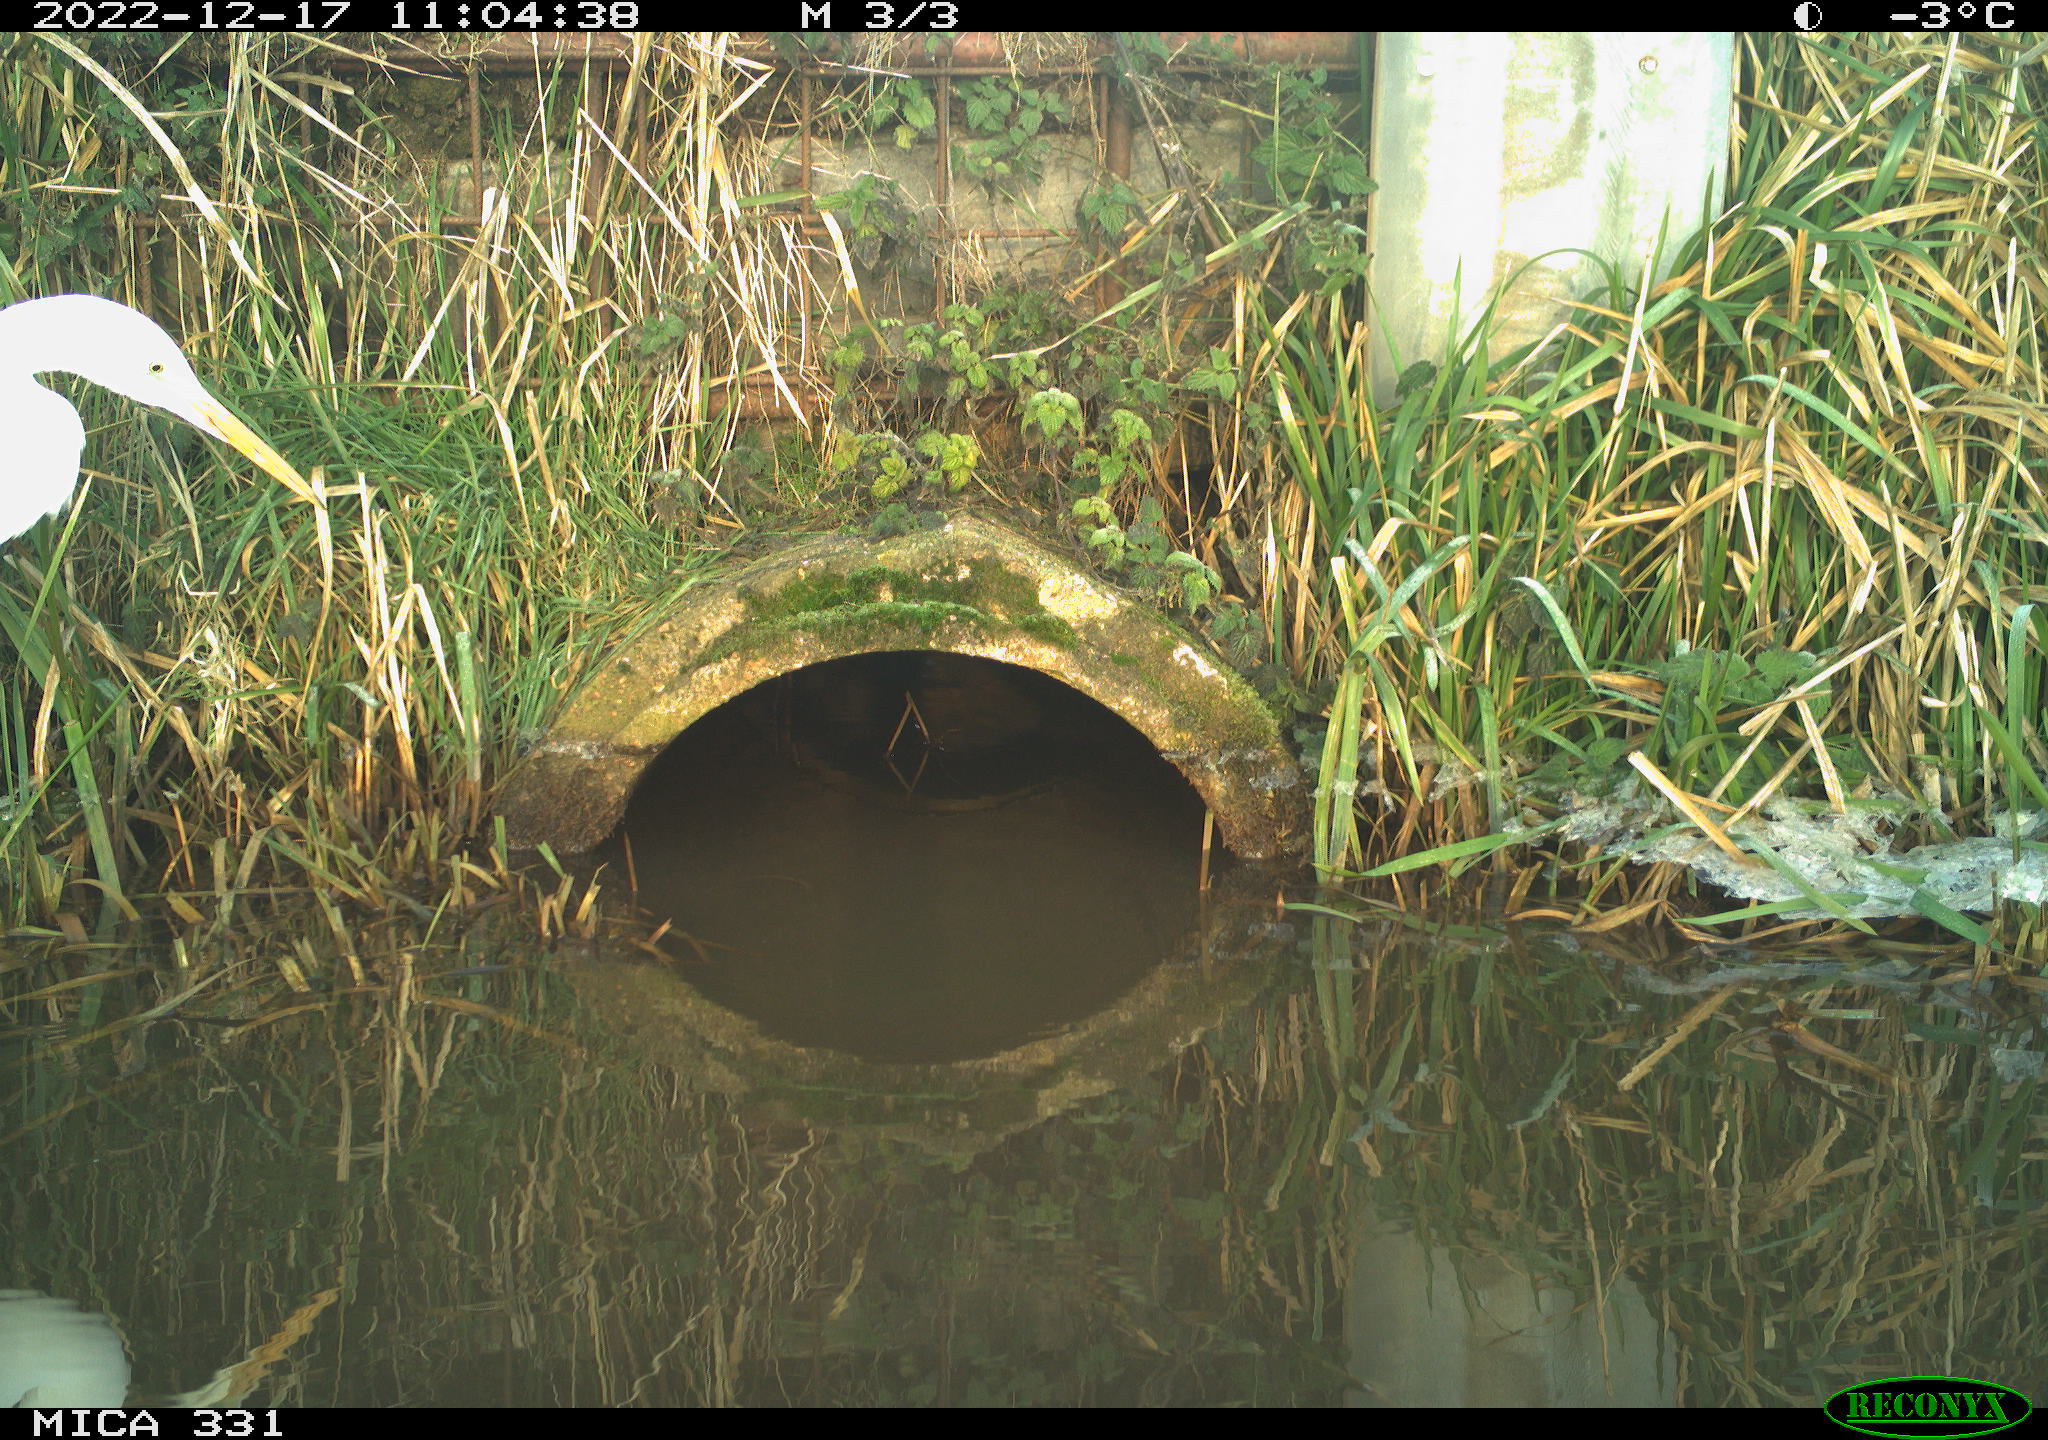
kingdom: Animalia
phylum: Chordata
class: Aves
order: Pelecaniformes
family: Ardeidae
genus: Ardea
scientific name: Ardea alba
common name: Great egret
